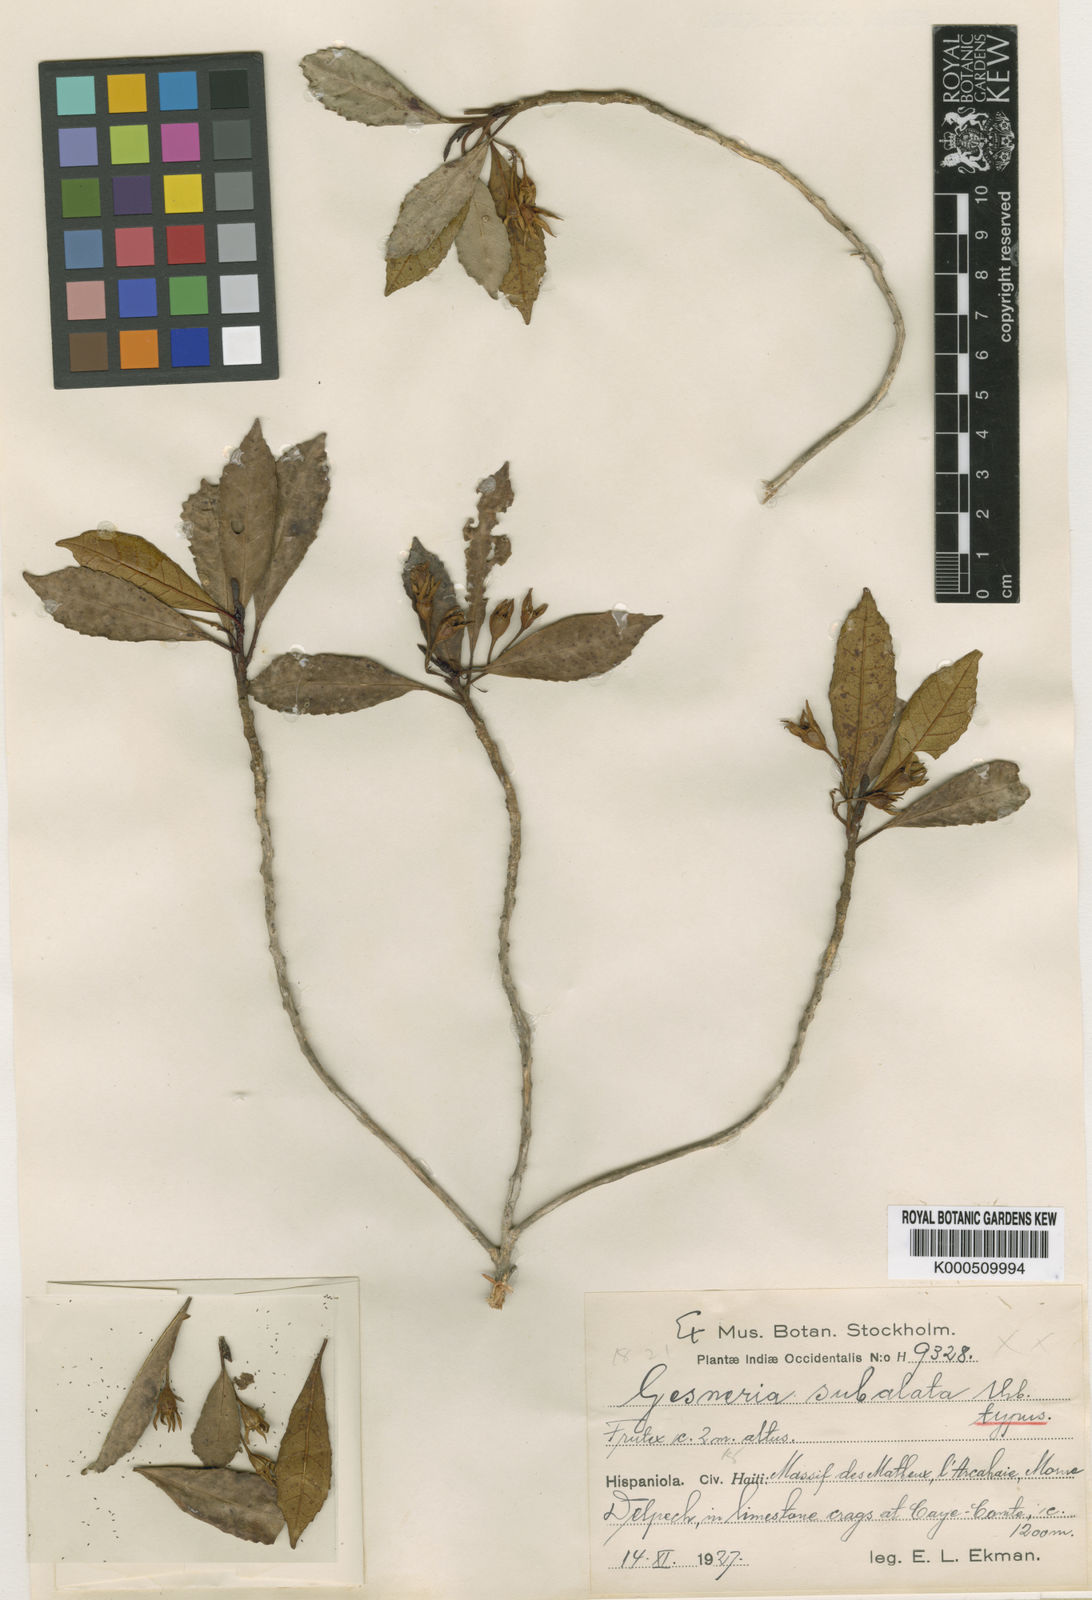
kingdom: Plantae
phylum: Tracheophyta
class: Magnoliopsida
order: Lamiales
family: Gesneriaceae
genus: Gesneria
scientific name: Gesneria cubensis
